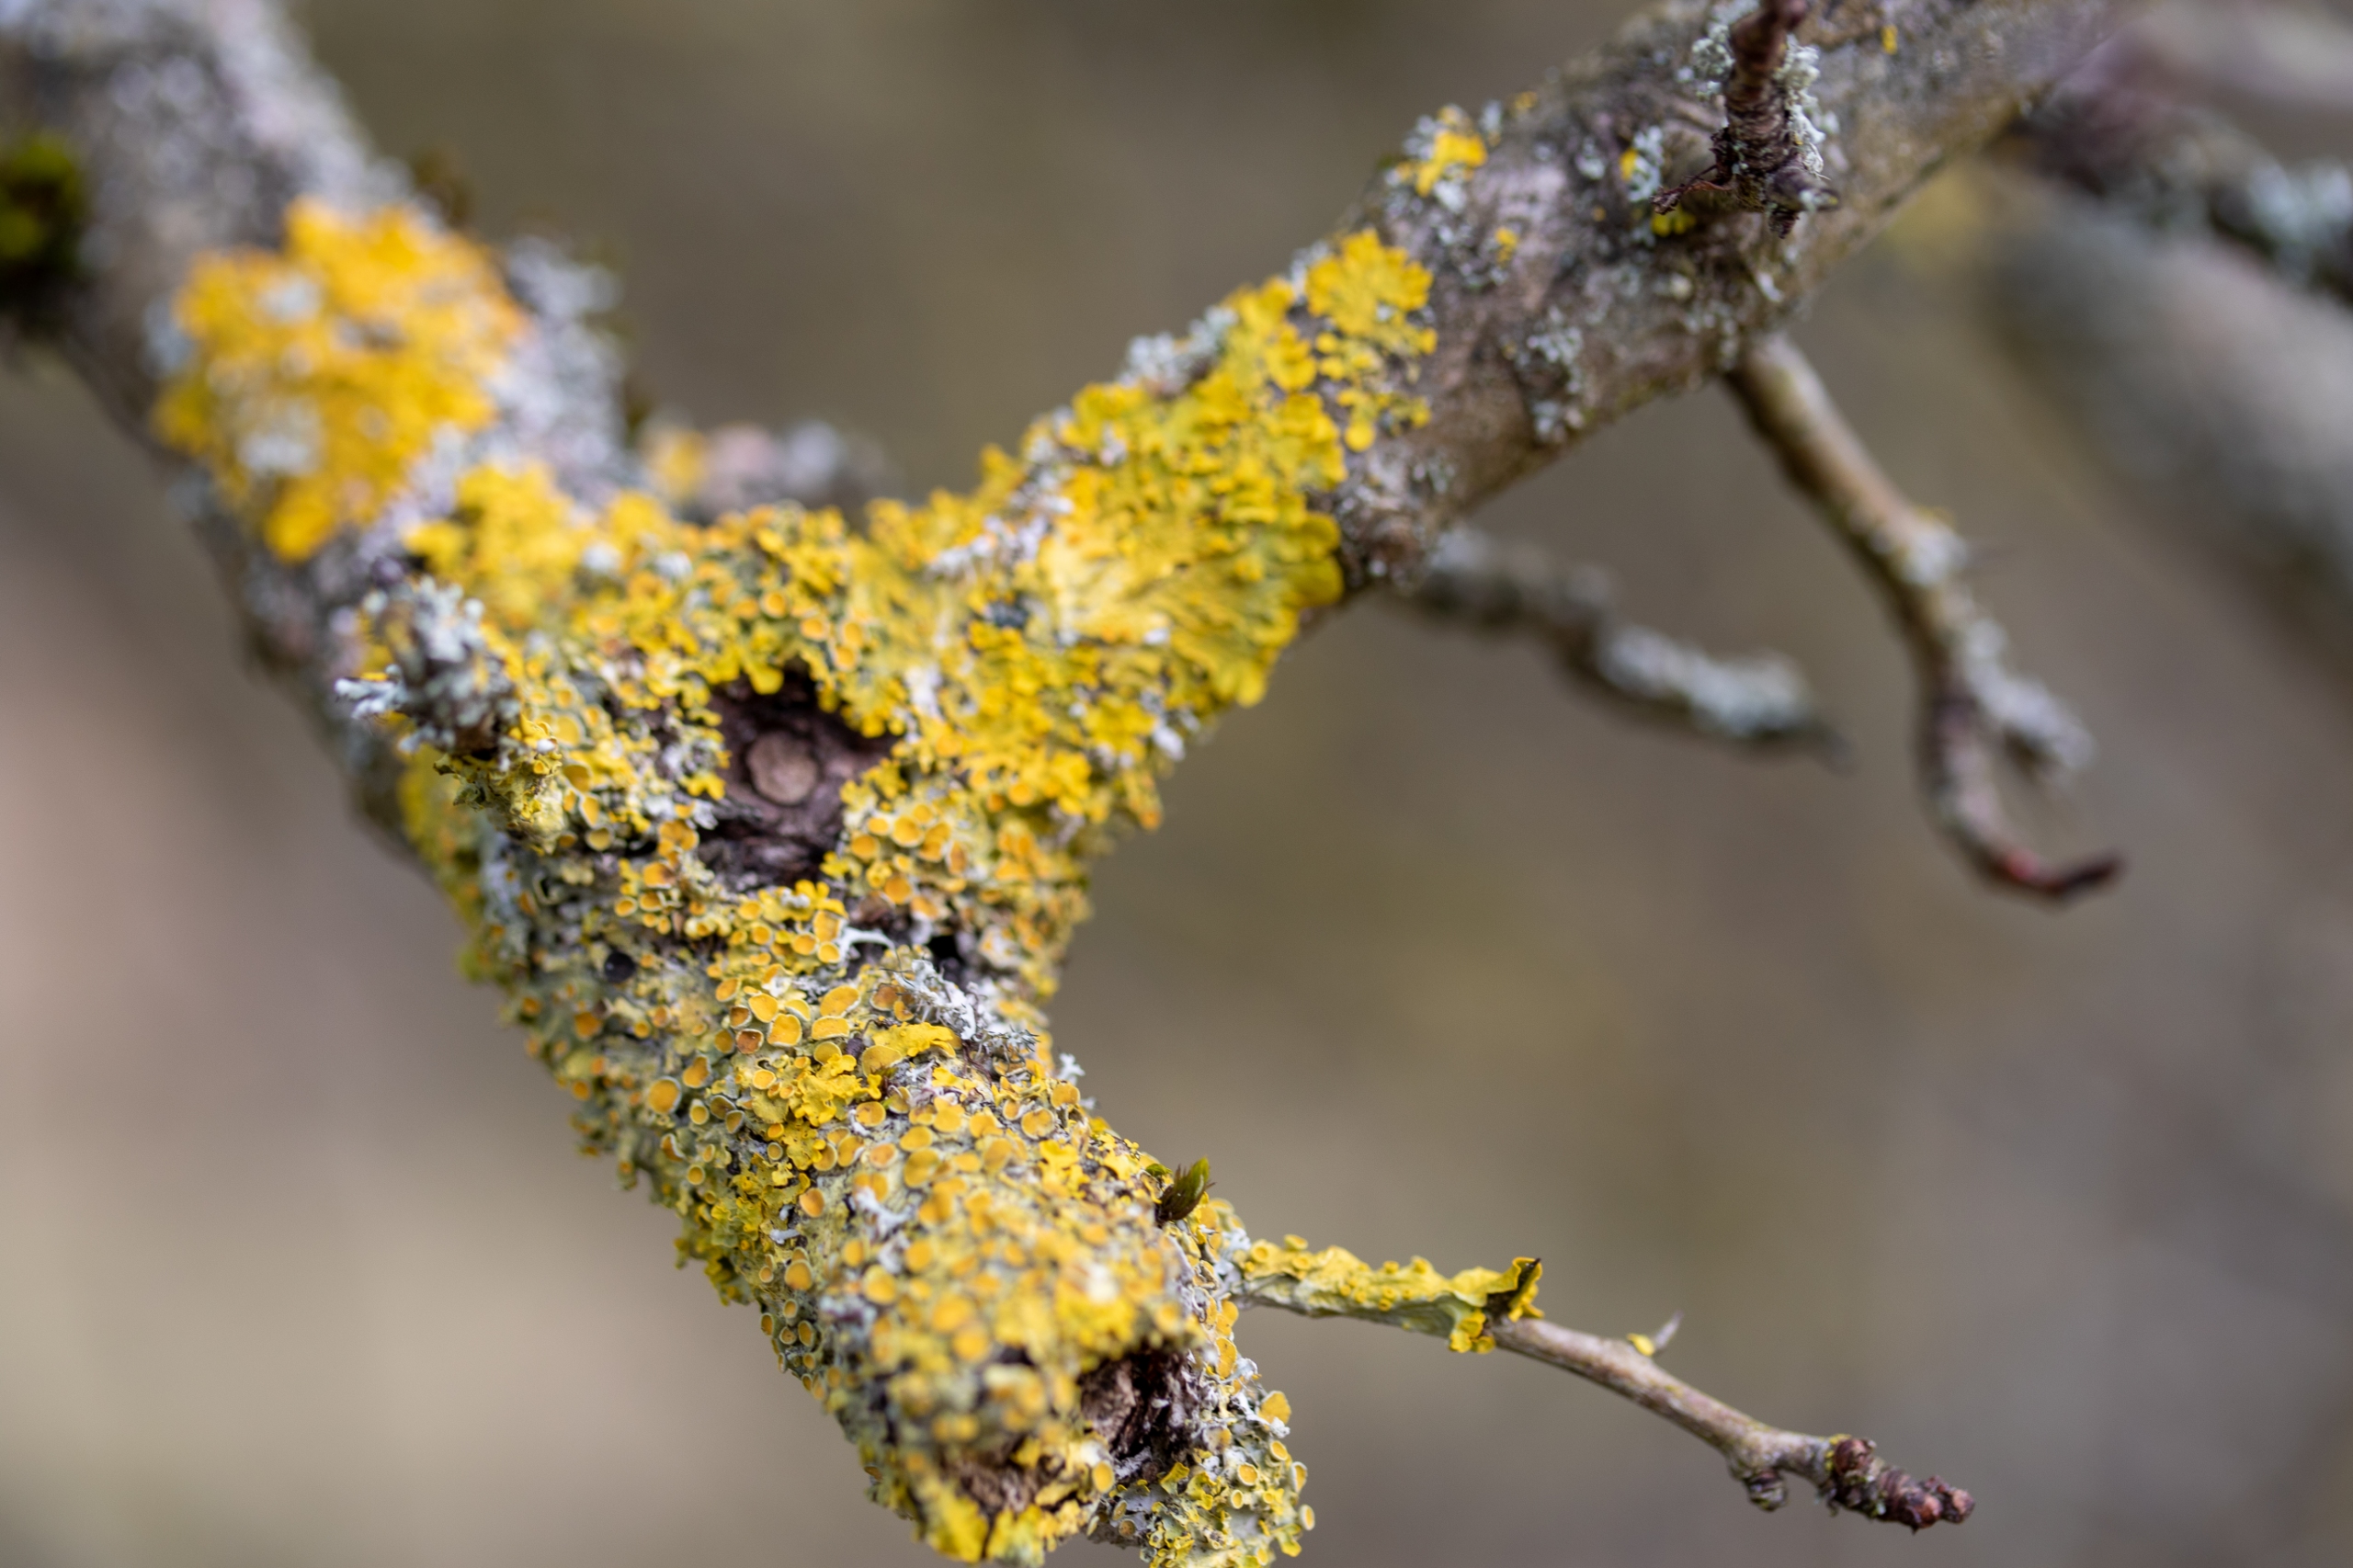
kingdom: Fungi
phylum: Ascomycota
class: Lecanoromycetes
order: Teloschistales
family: Teloschistaceae
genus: Xanthoria
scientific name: Xanthoria parietina
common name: Almindelig væggelav
